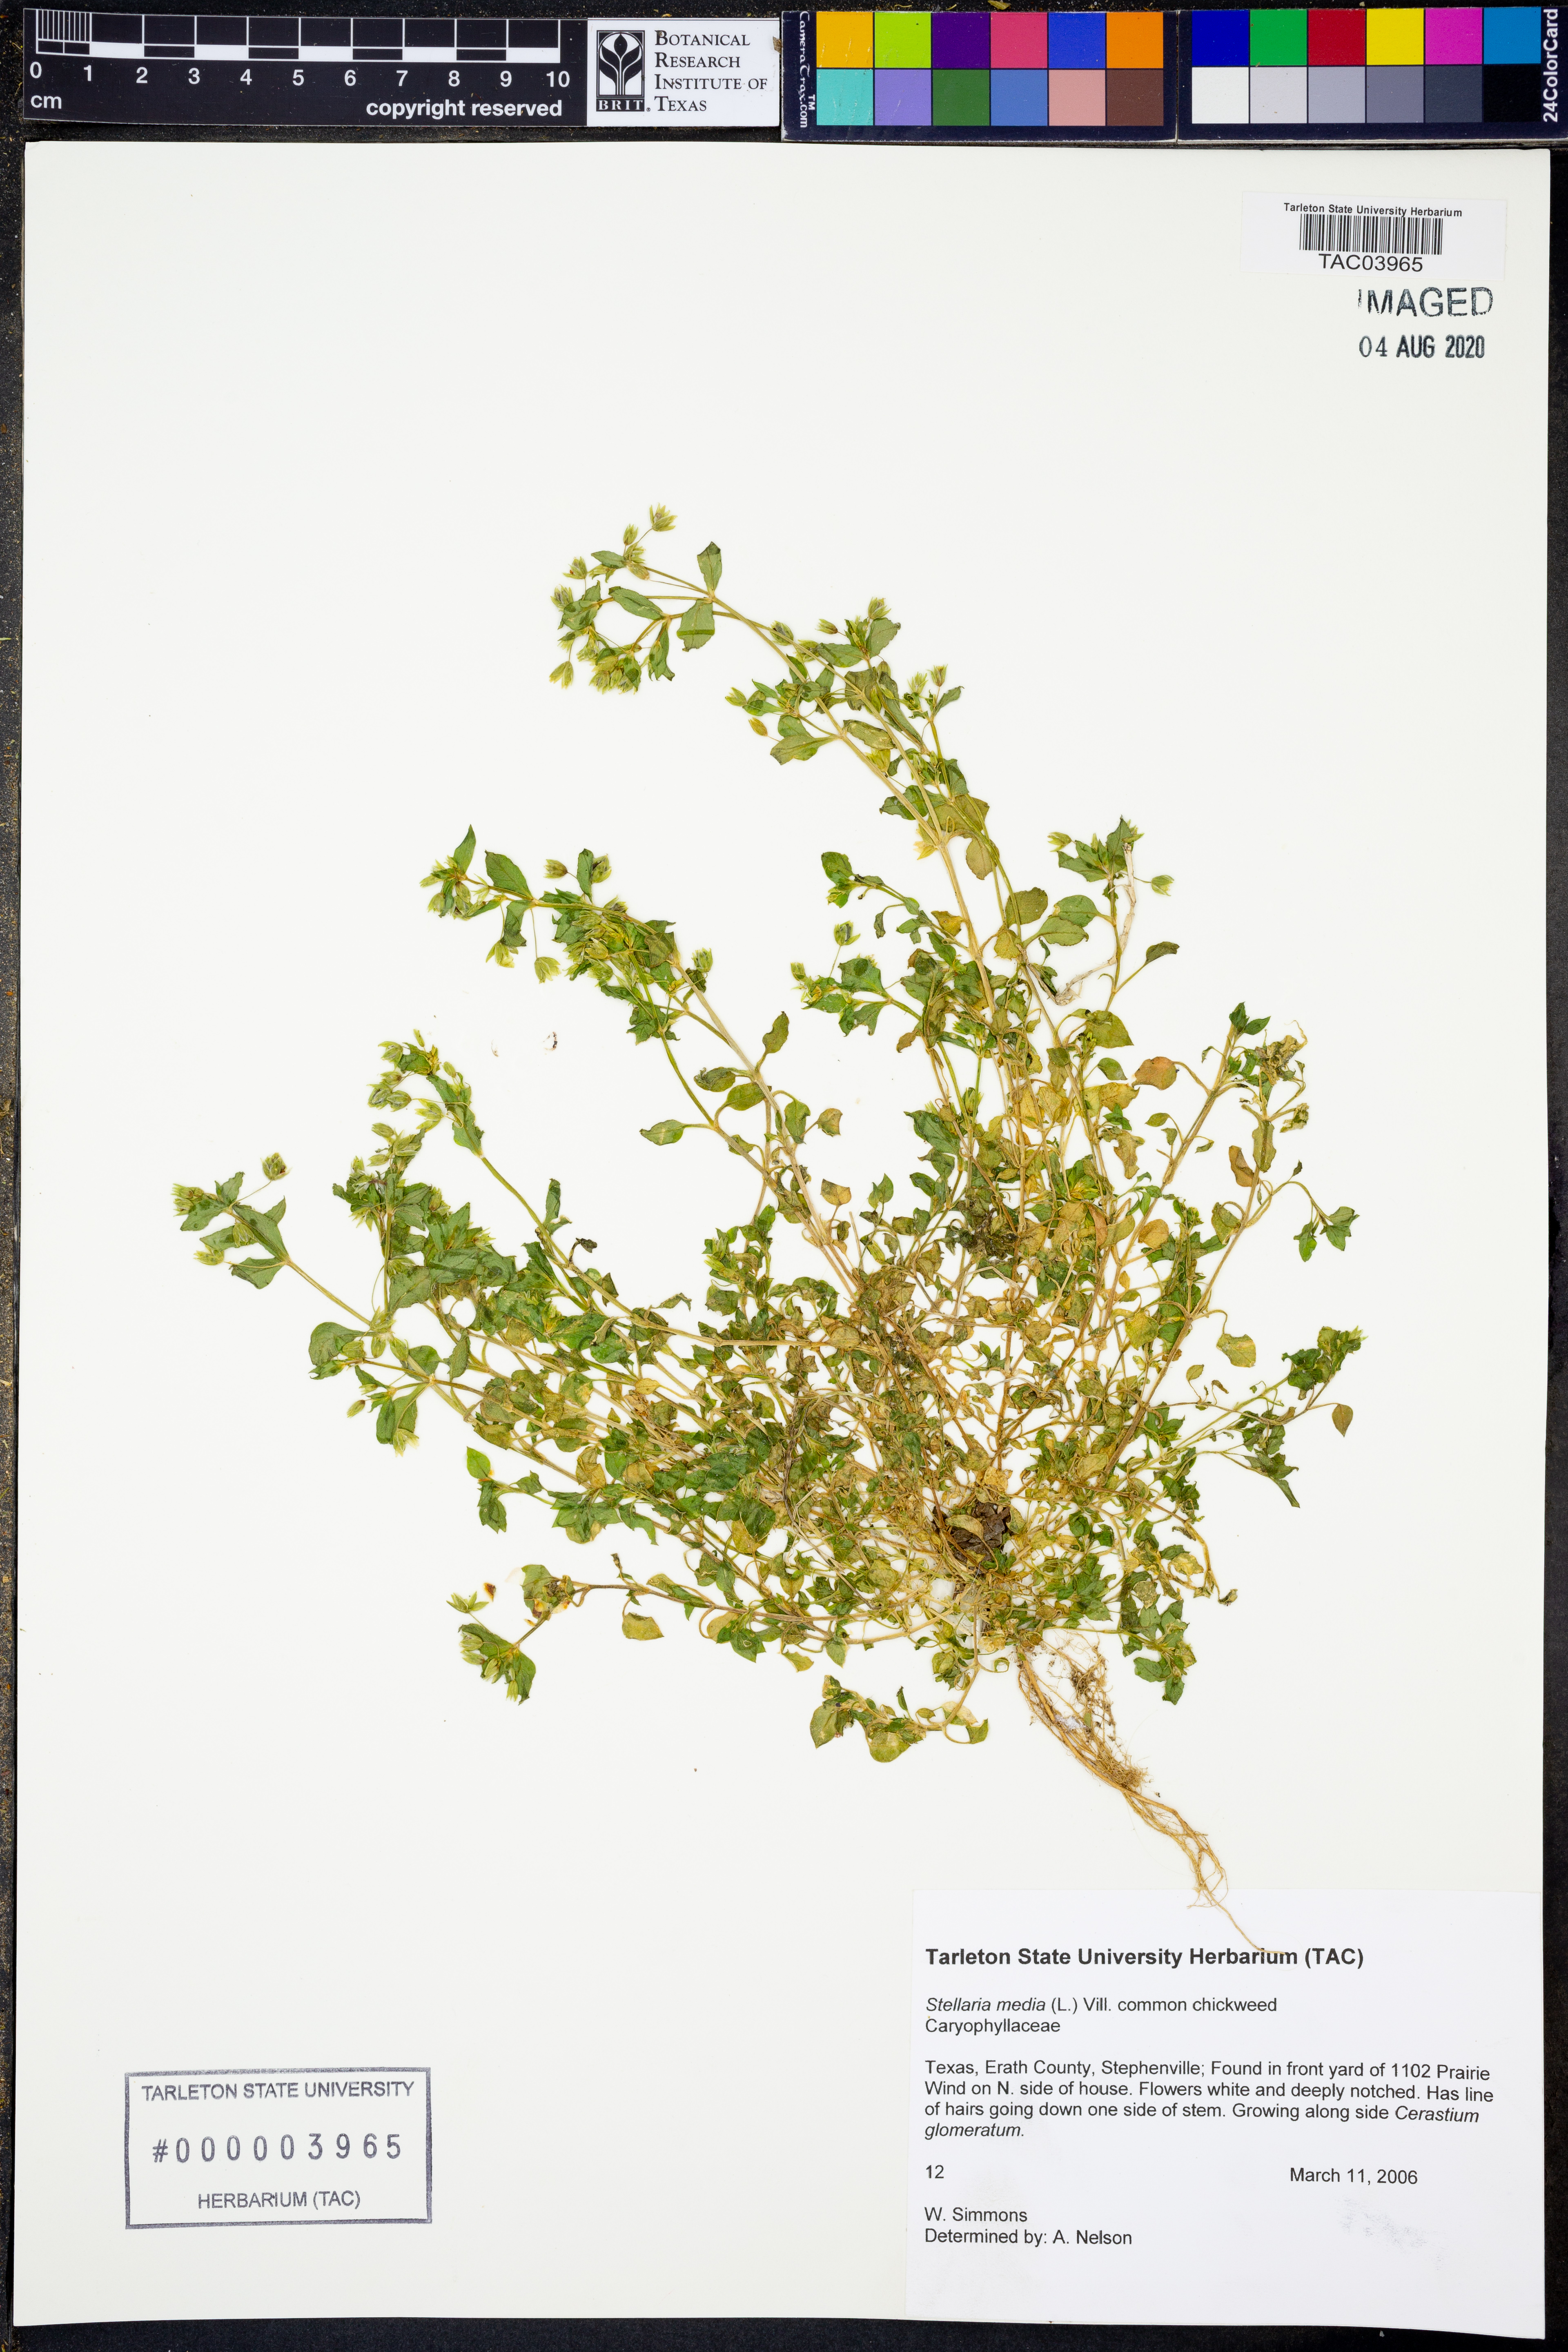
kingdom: Plantae
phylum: Tracheophyta
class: Magnoliopsida
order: Caryophyllales
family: Caryophyllaceae
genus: Stellaria
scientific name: Stellaria media
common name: Common chickweed
